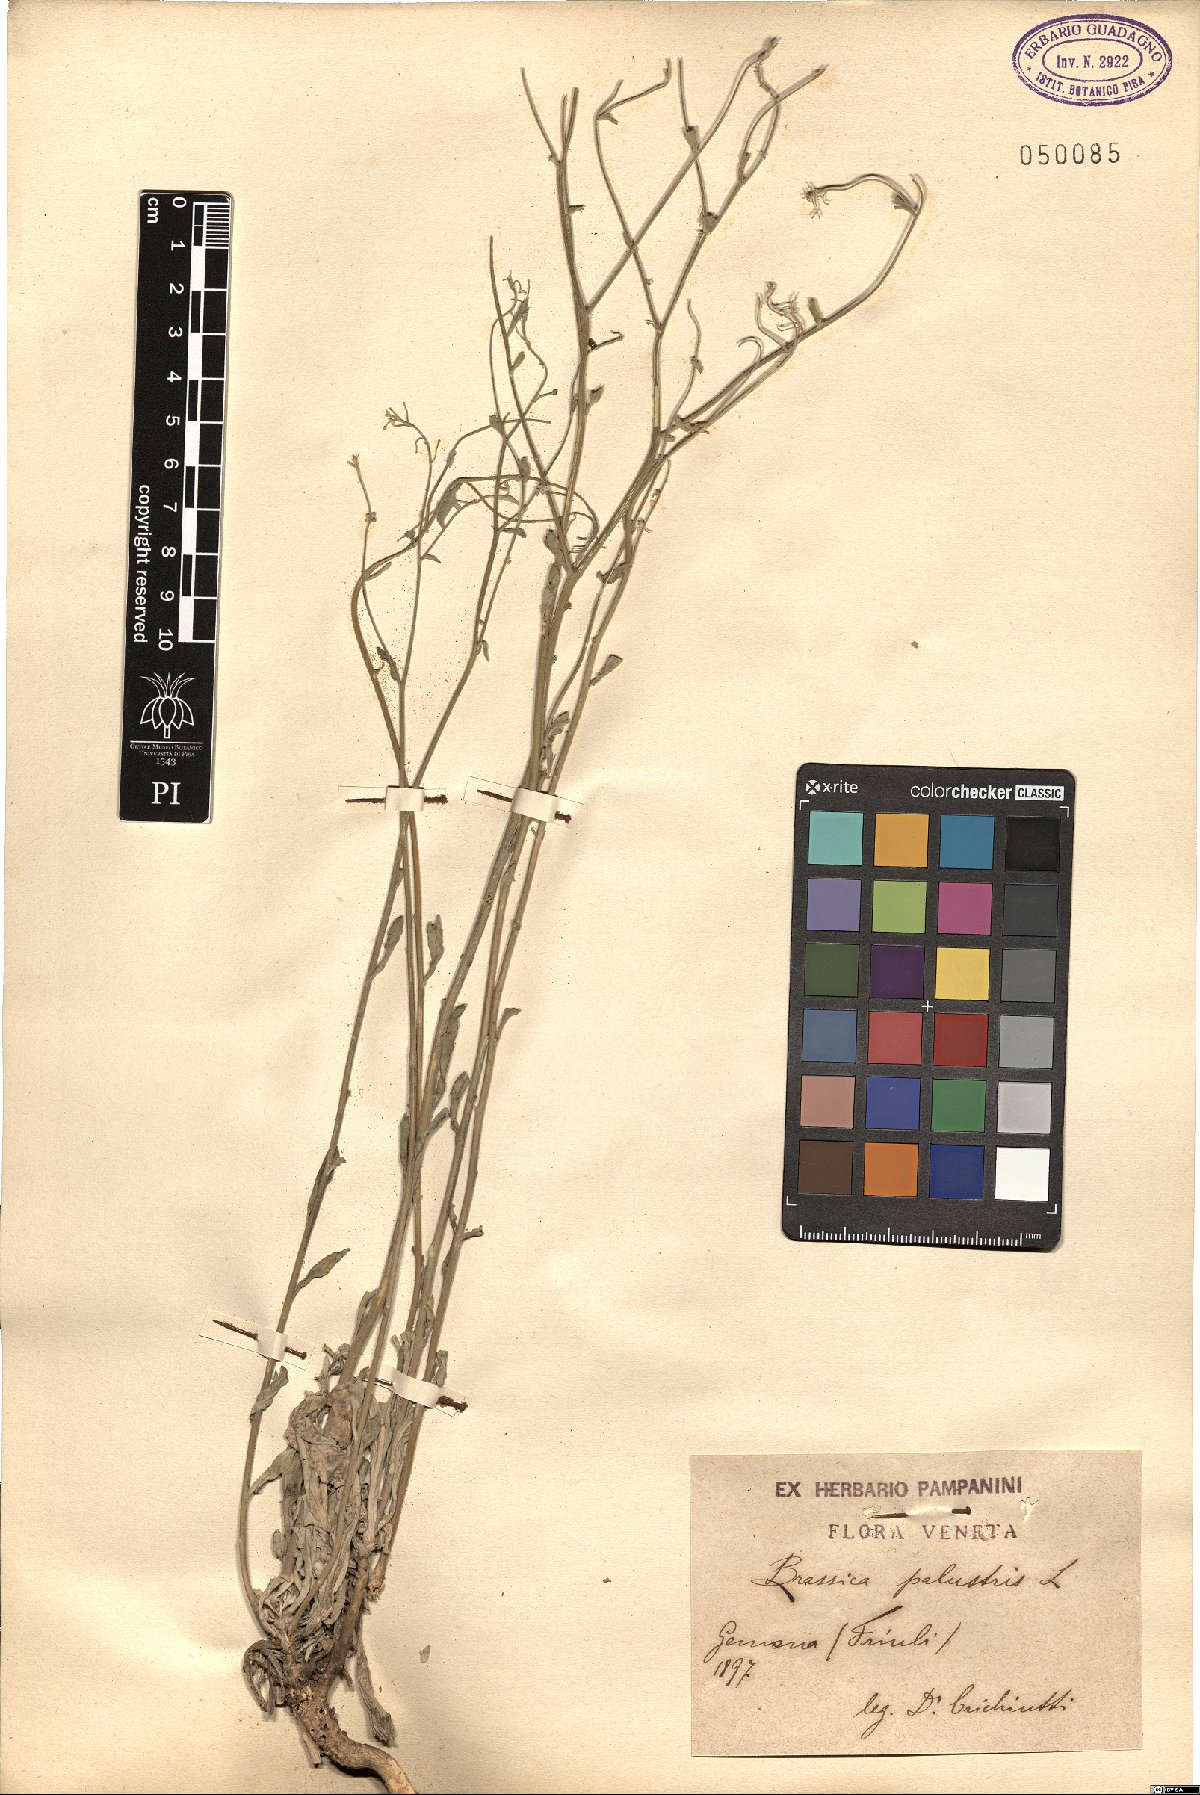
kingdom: Plantae
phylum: Tracheophyta
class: Magnoliopsida
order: Brassicales
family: Brassicaceae
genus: Erucastrum
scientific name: Erucastrum palustre
